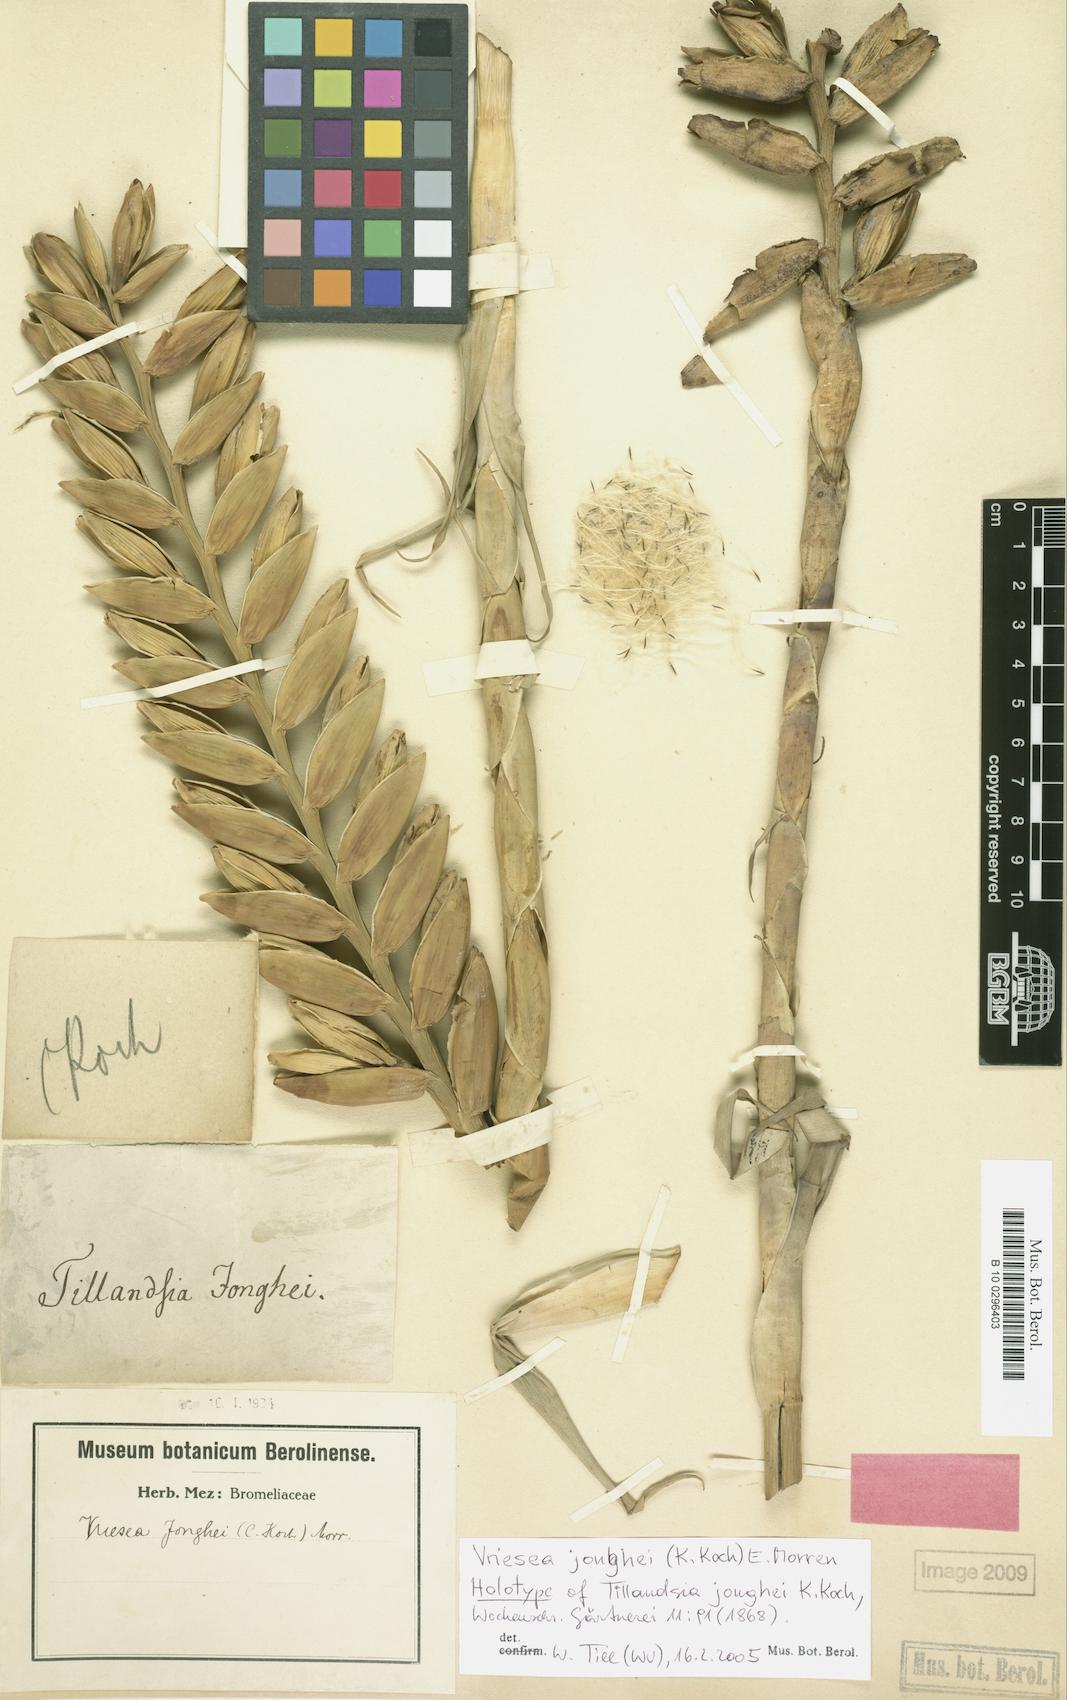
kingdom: Plantae
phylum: Tracheophyta
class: Liliopsida
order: Poales
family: Bromeliaceae
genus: Vriesea
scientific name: Vriesea jonghei
